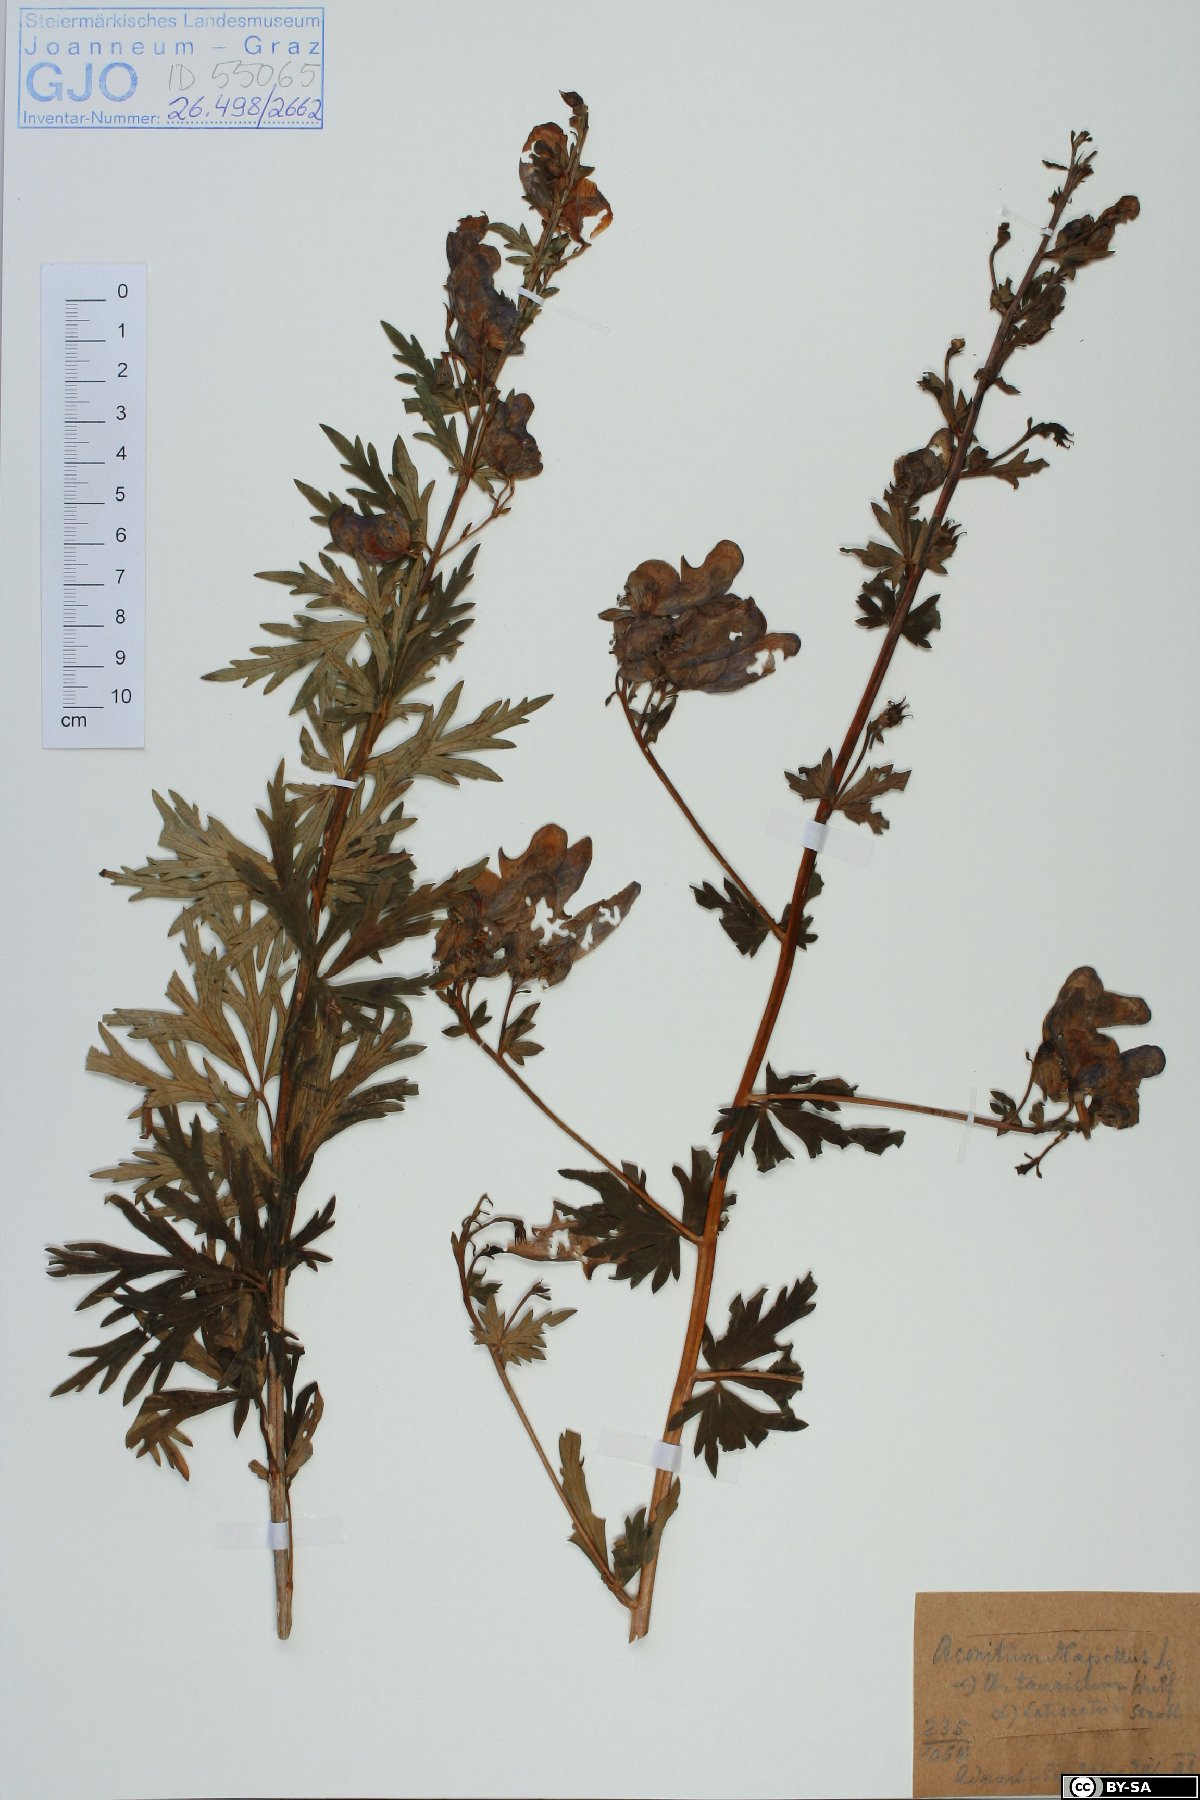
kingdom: Plantae
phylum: Tracheophyta
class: Magnoliopsida
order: Ranunculales
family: Ranunculaceae
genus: Aconitum
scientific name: Aconitum napellus
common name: Garden monkshood
